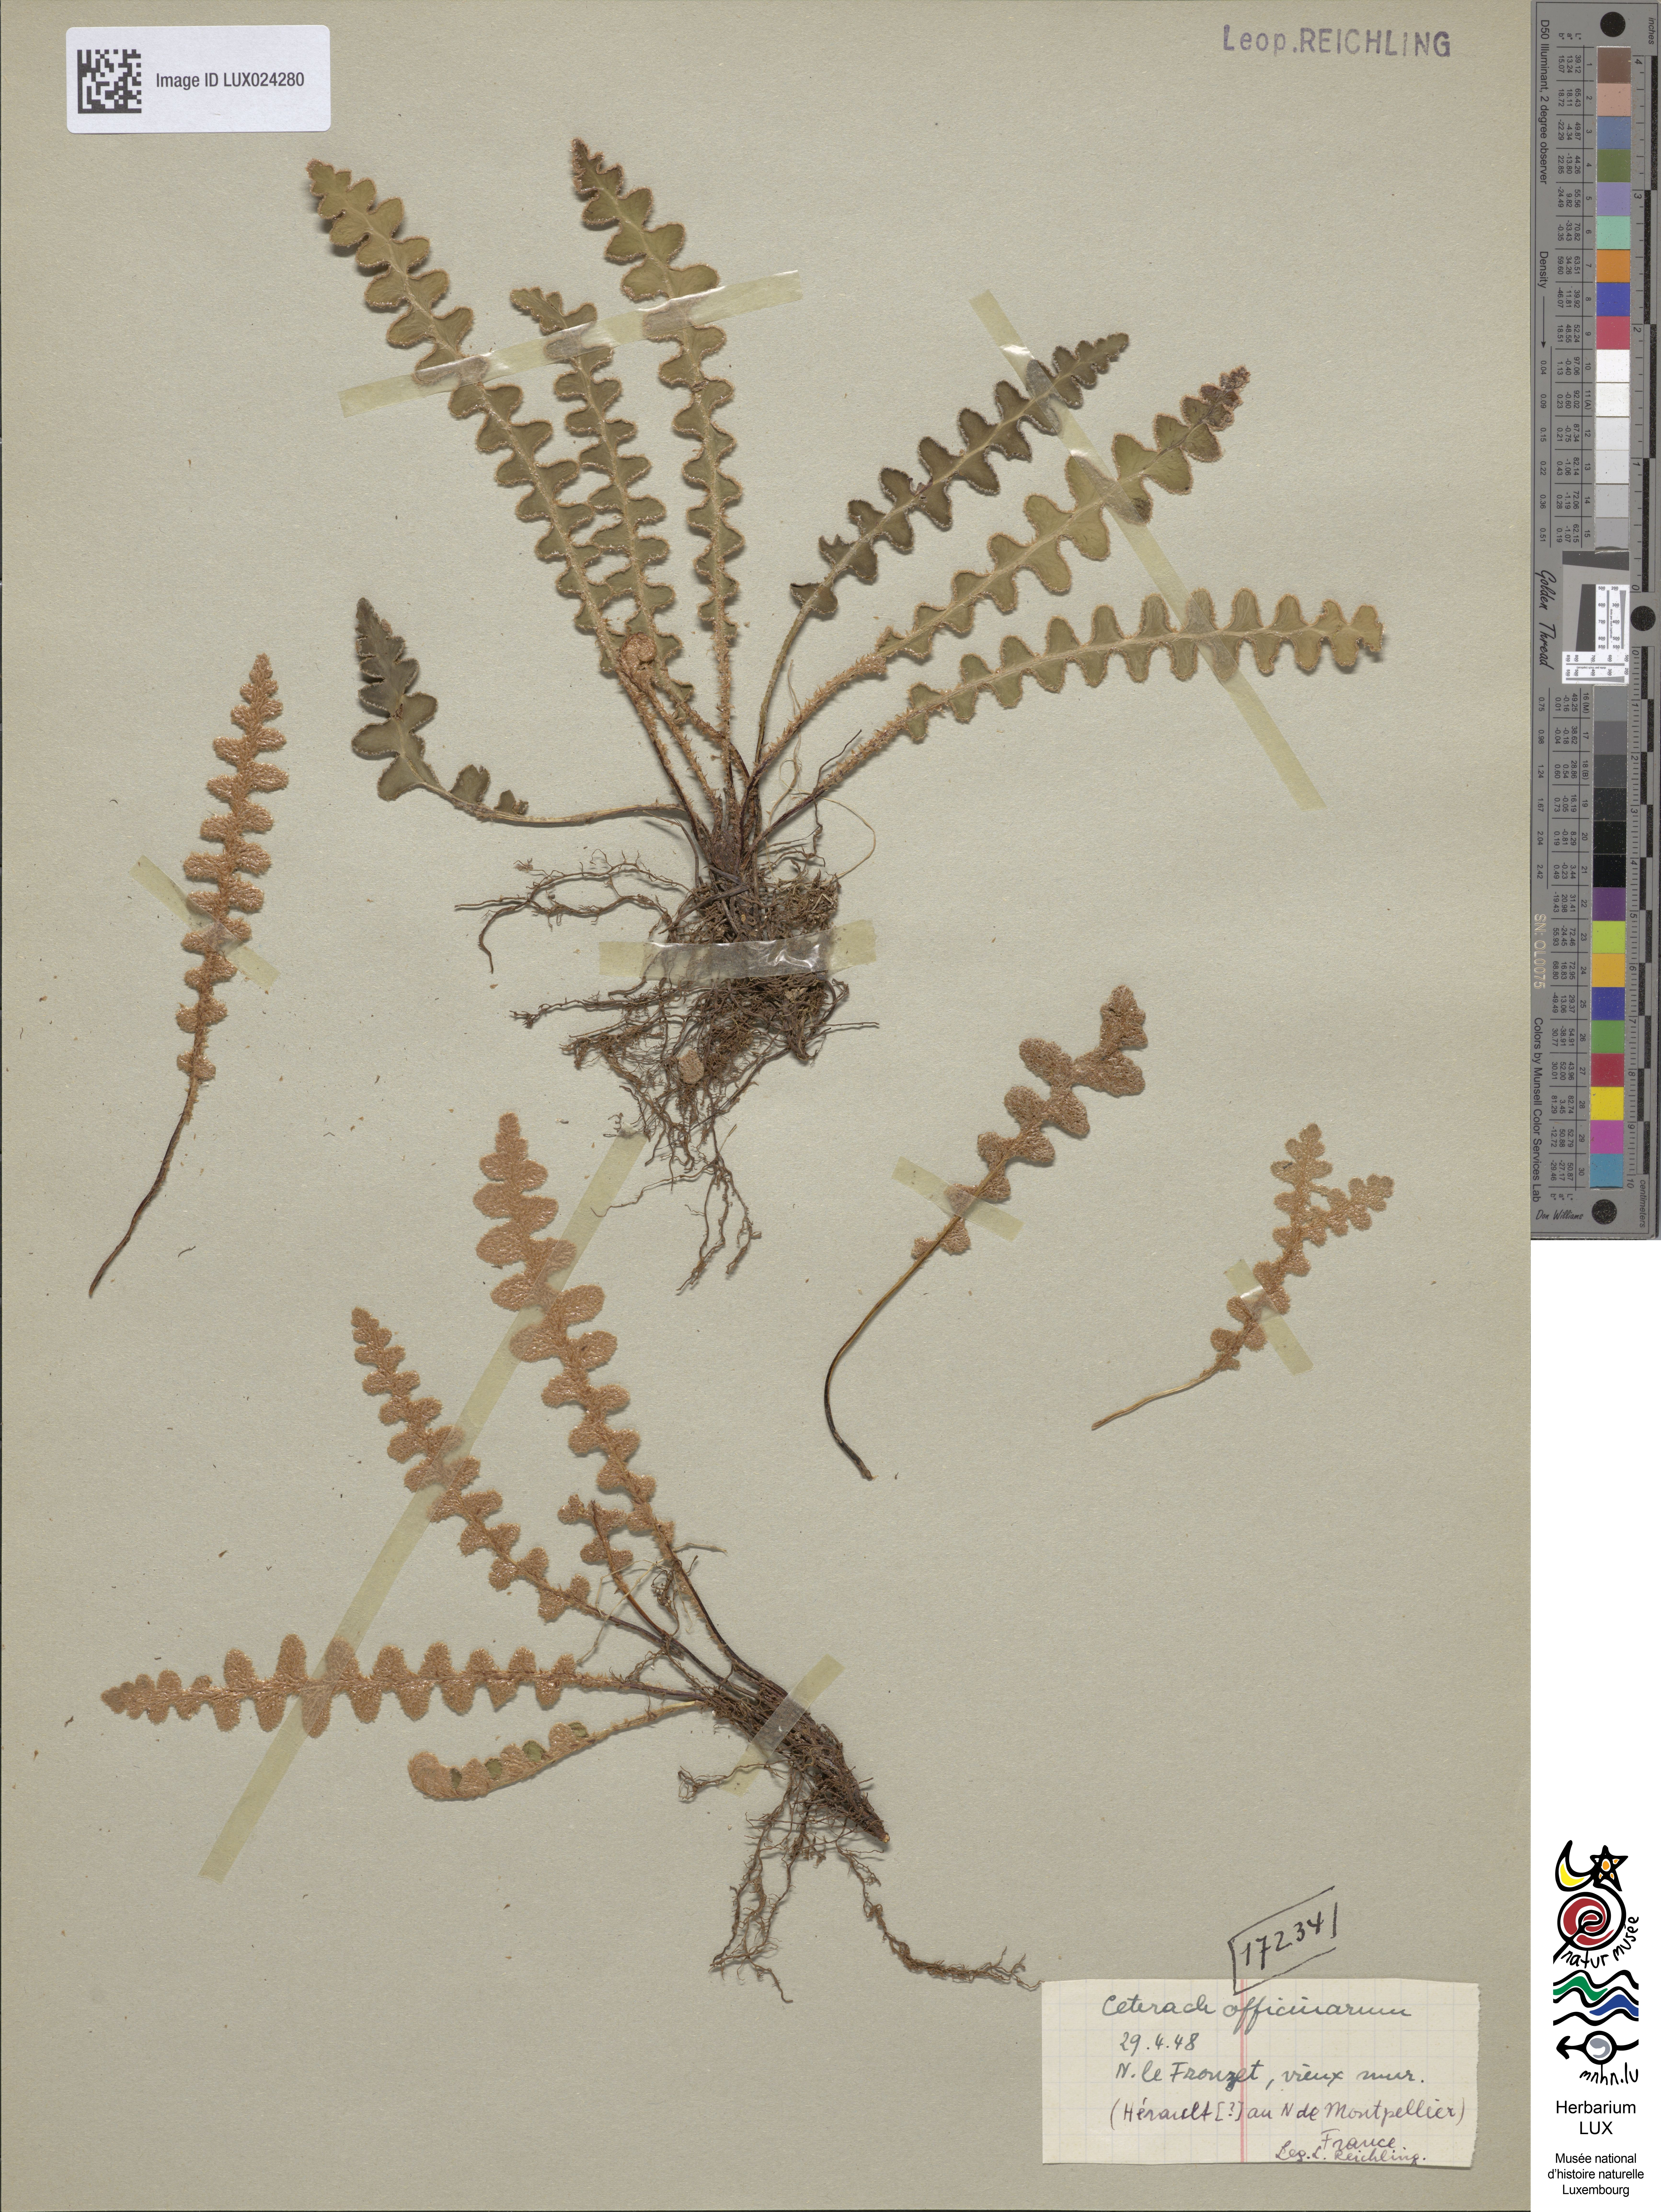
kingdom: Plantae
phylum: Tracheophyta
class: Polypodiopsida
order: Polypodiales
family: Aspleniaceae
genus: Asplenium
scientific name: Asplenium ceterach
